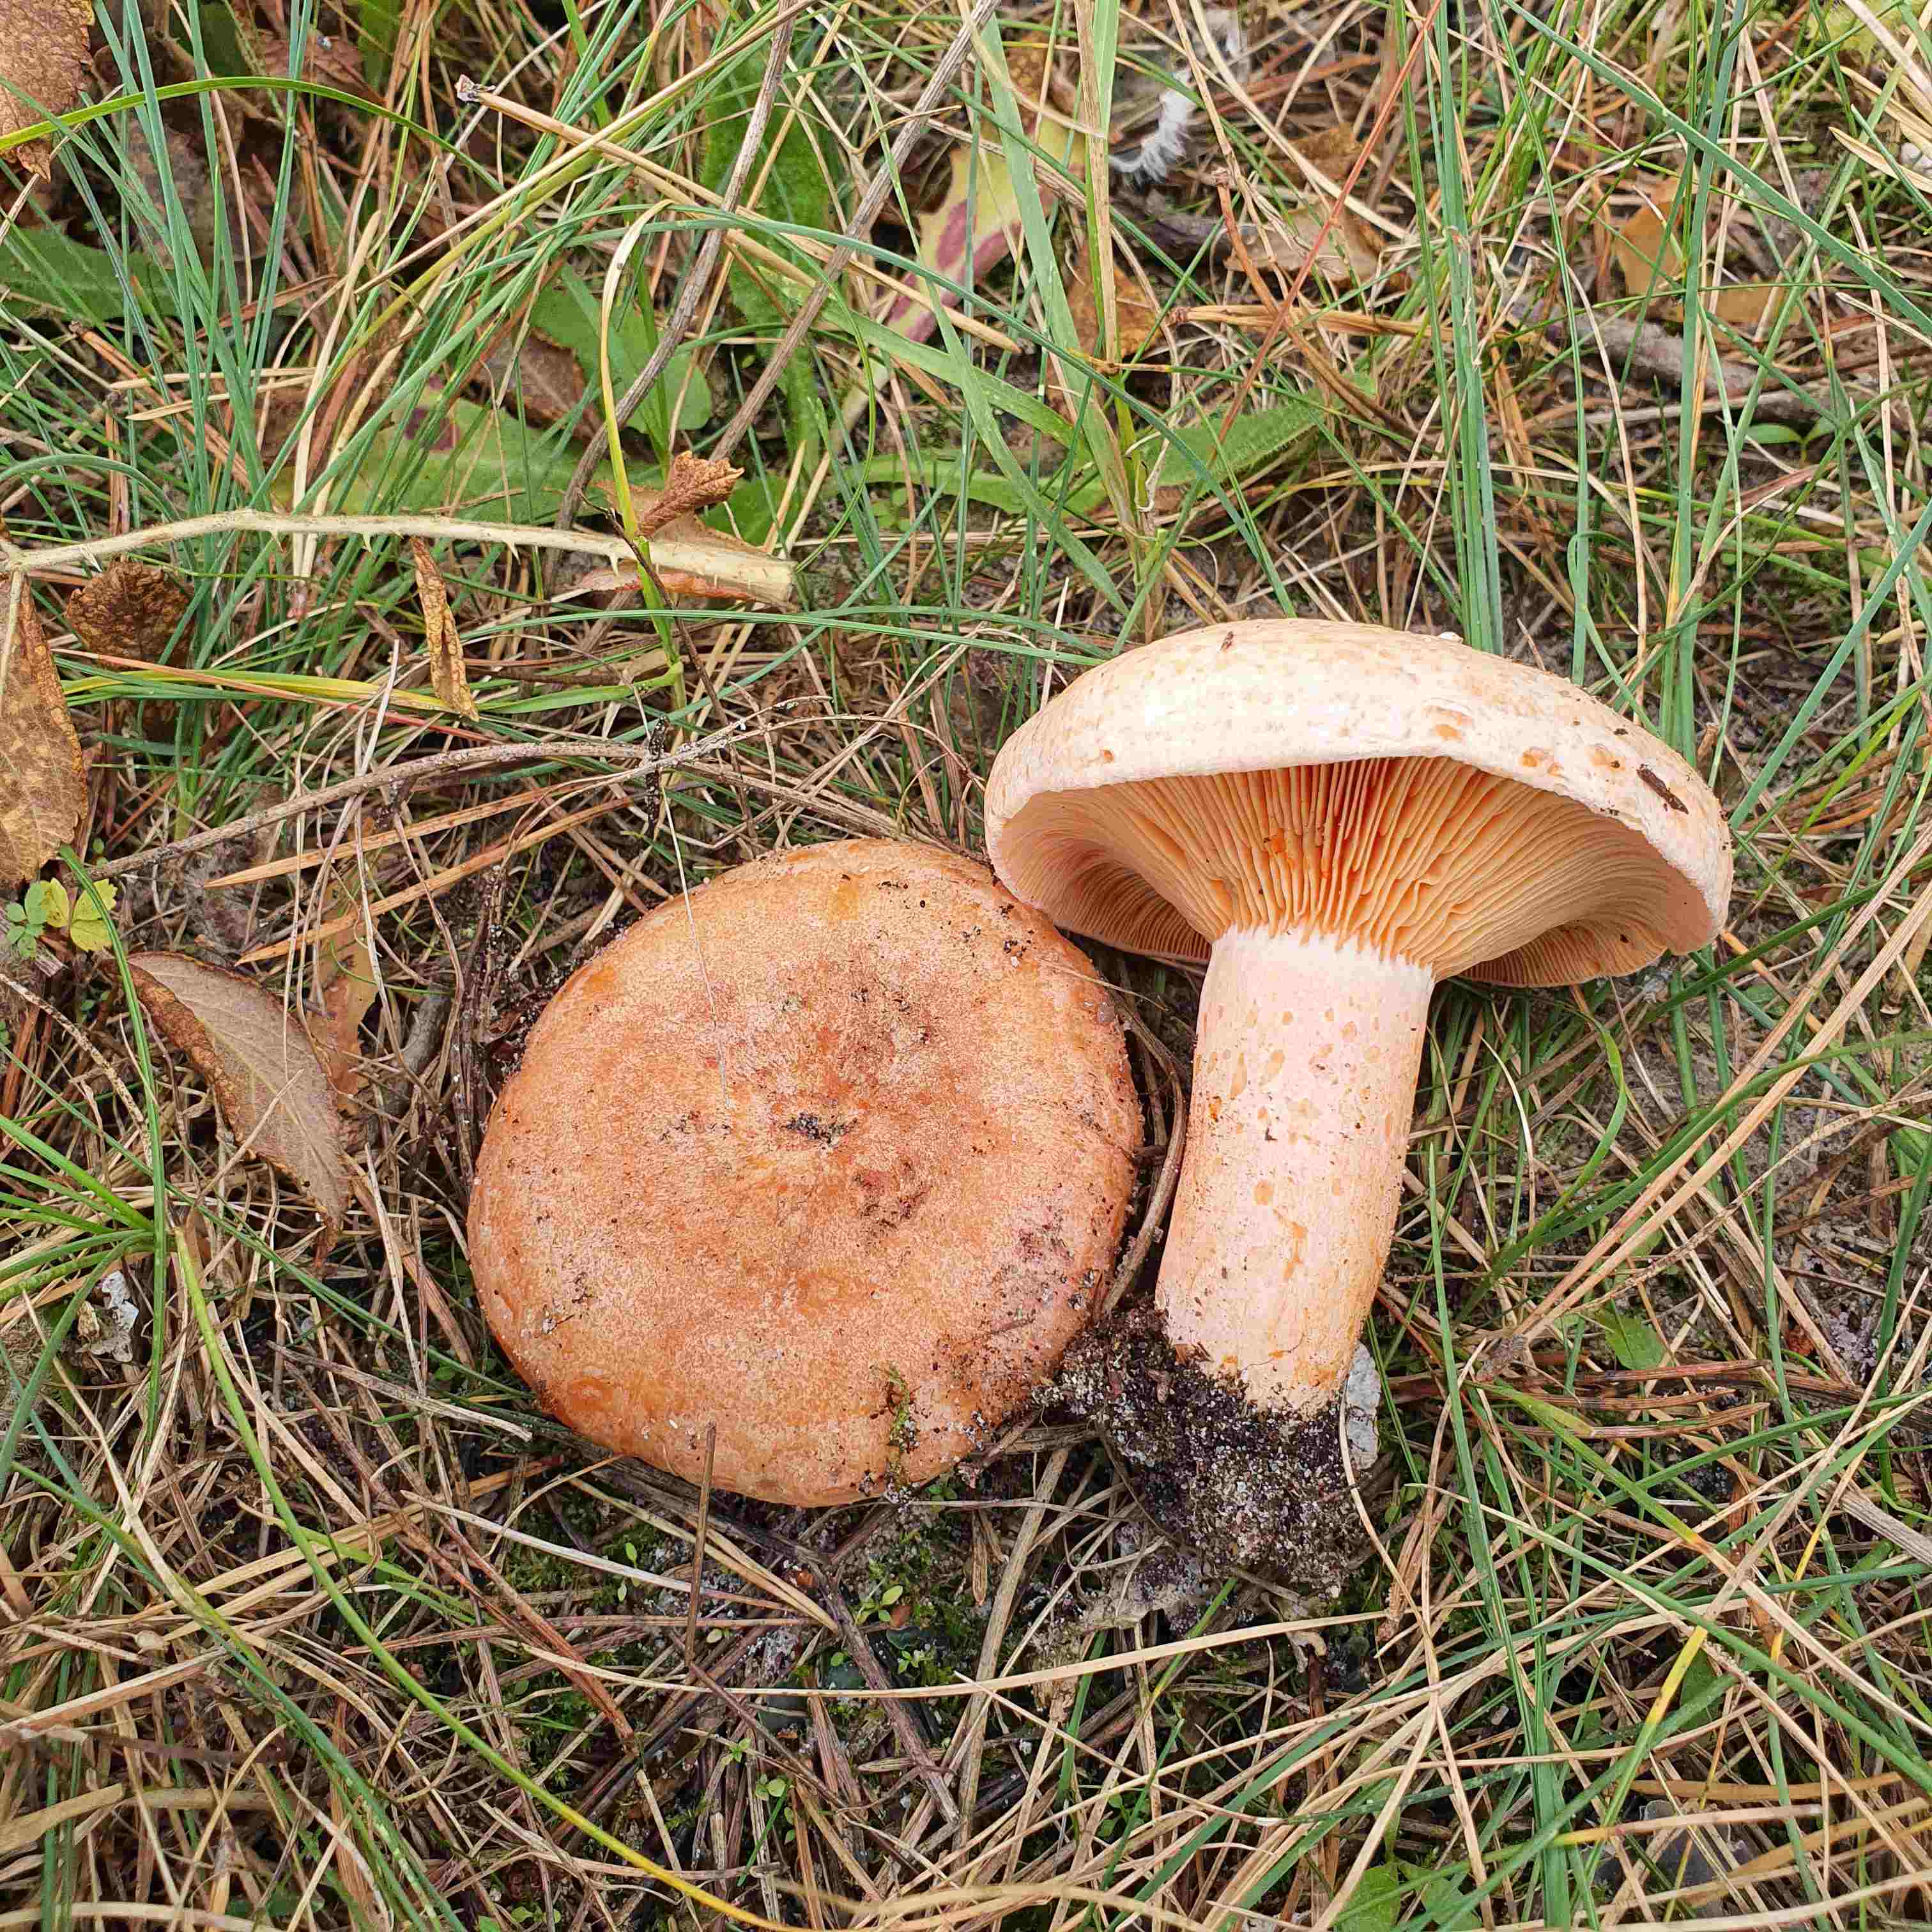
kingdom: Fungi
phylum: Basidiomycota
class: Agaricomycetes
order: Russulales
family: Russulaceae
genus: Lactarius
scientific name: Lactarius deliciosus
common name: velsmagende mælkehat
